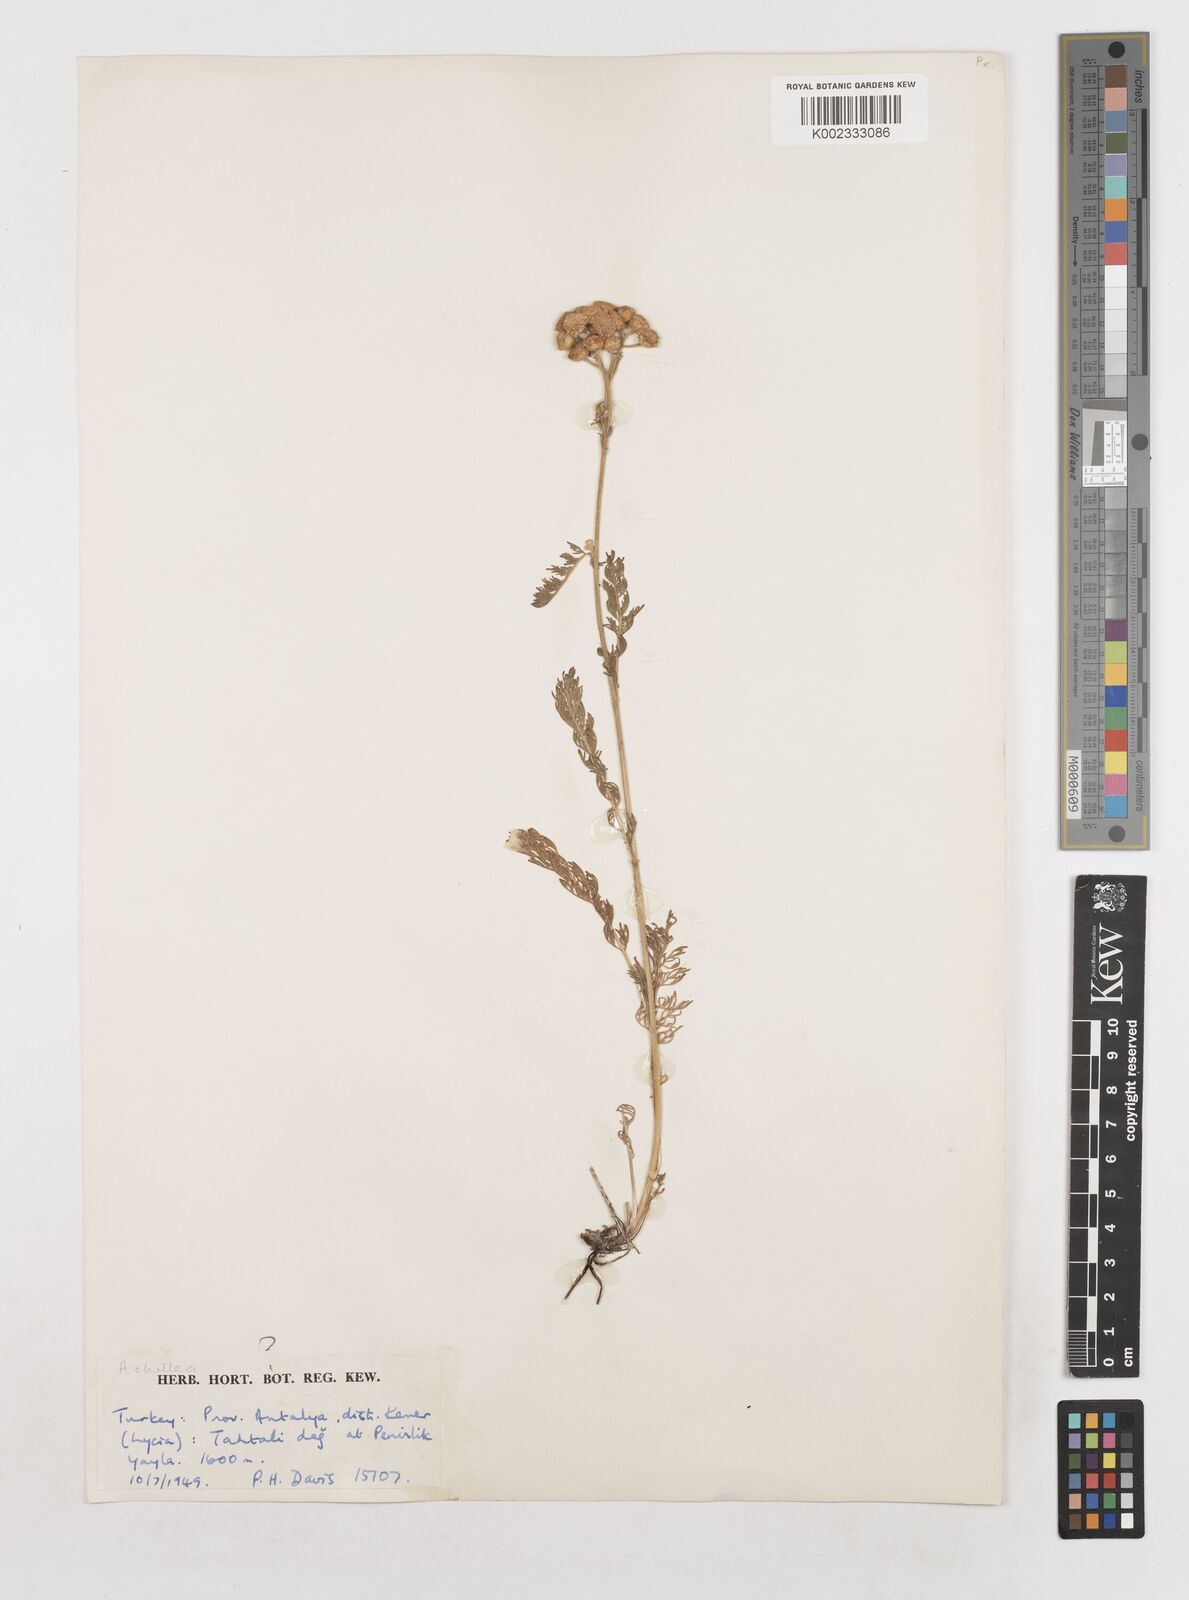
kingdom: Plantae
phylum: Tracheophyta
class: Magnoliopsida
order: Asterales
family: Asteraceae
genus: Achillea
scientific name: Achillea
